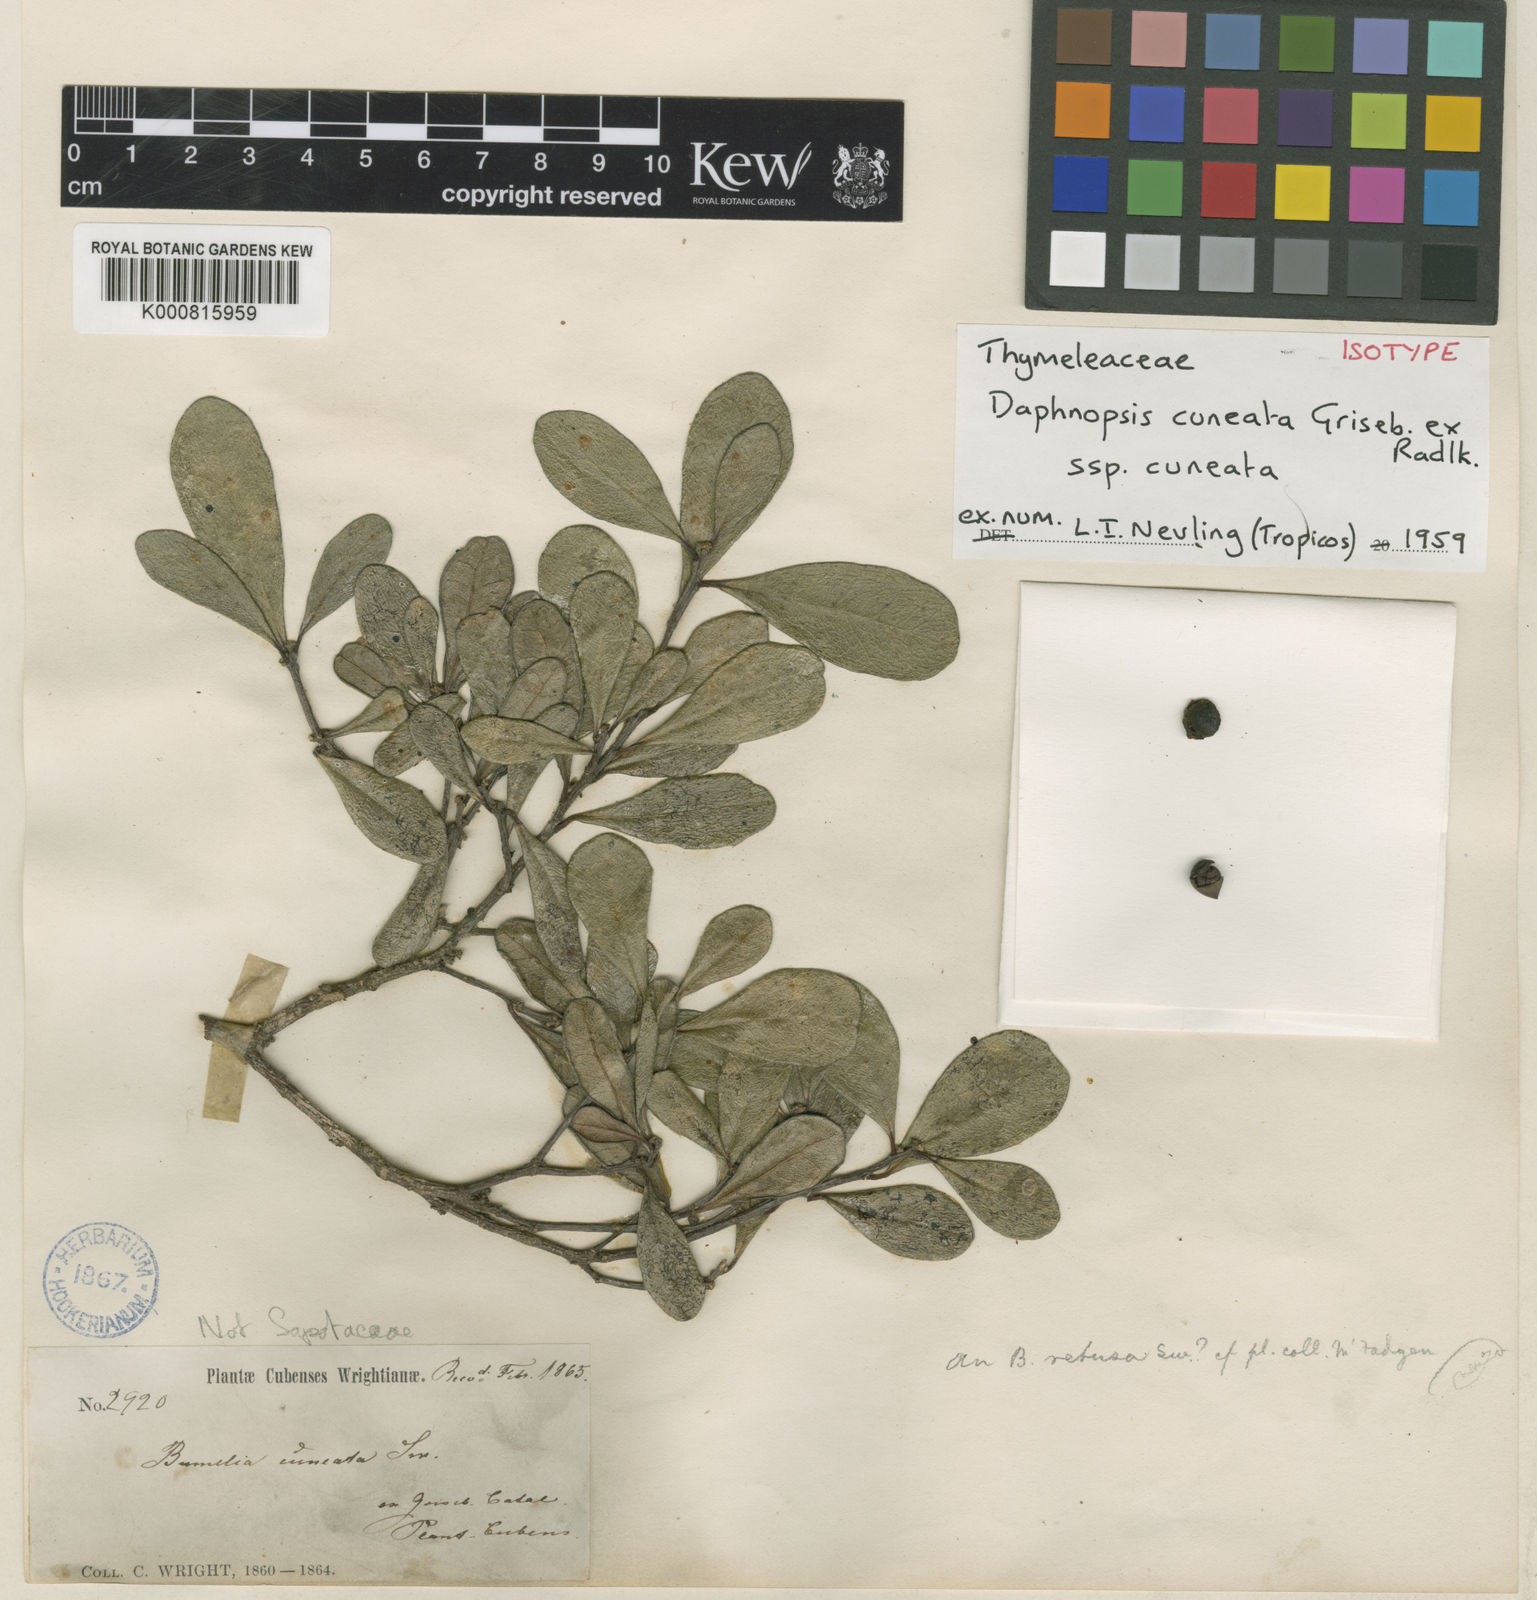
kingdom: Plantae
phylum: Tracheophyta
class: Magnoliopsida
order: Malvales
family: Thymelaeaceae
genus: Daphnopsis
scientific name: Daphnopsis cuneata
